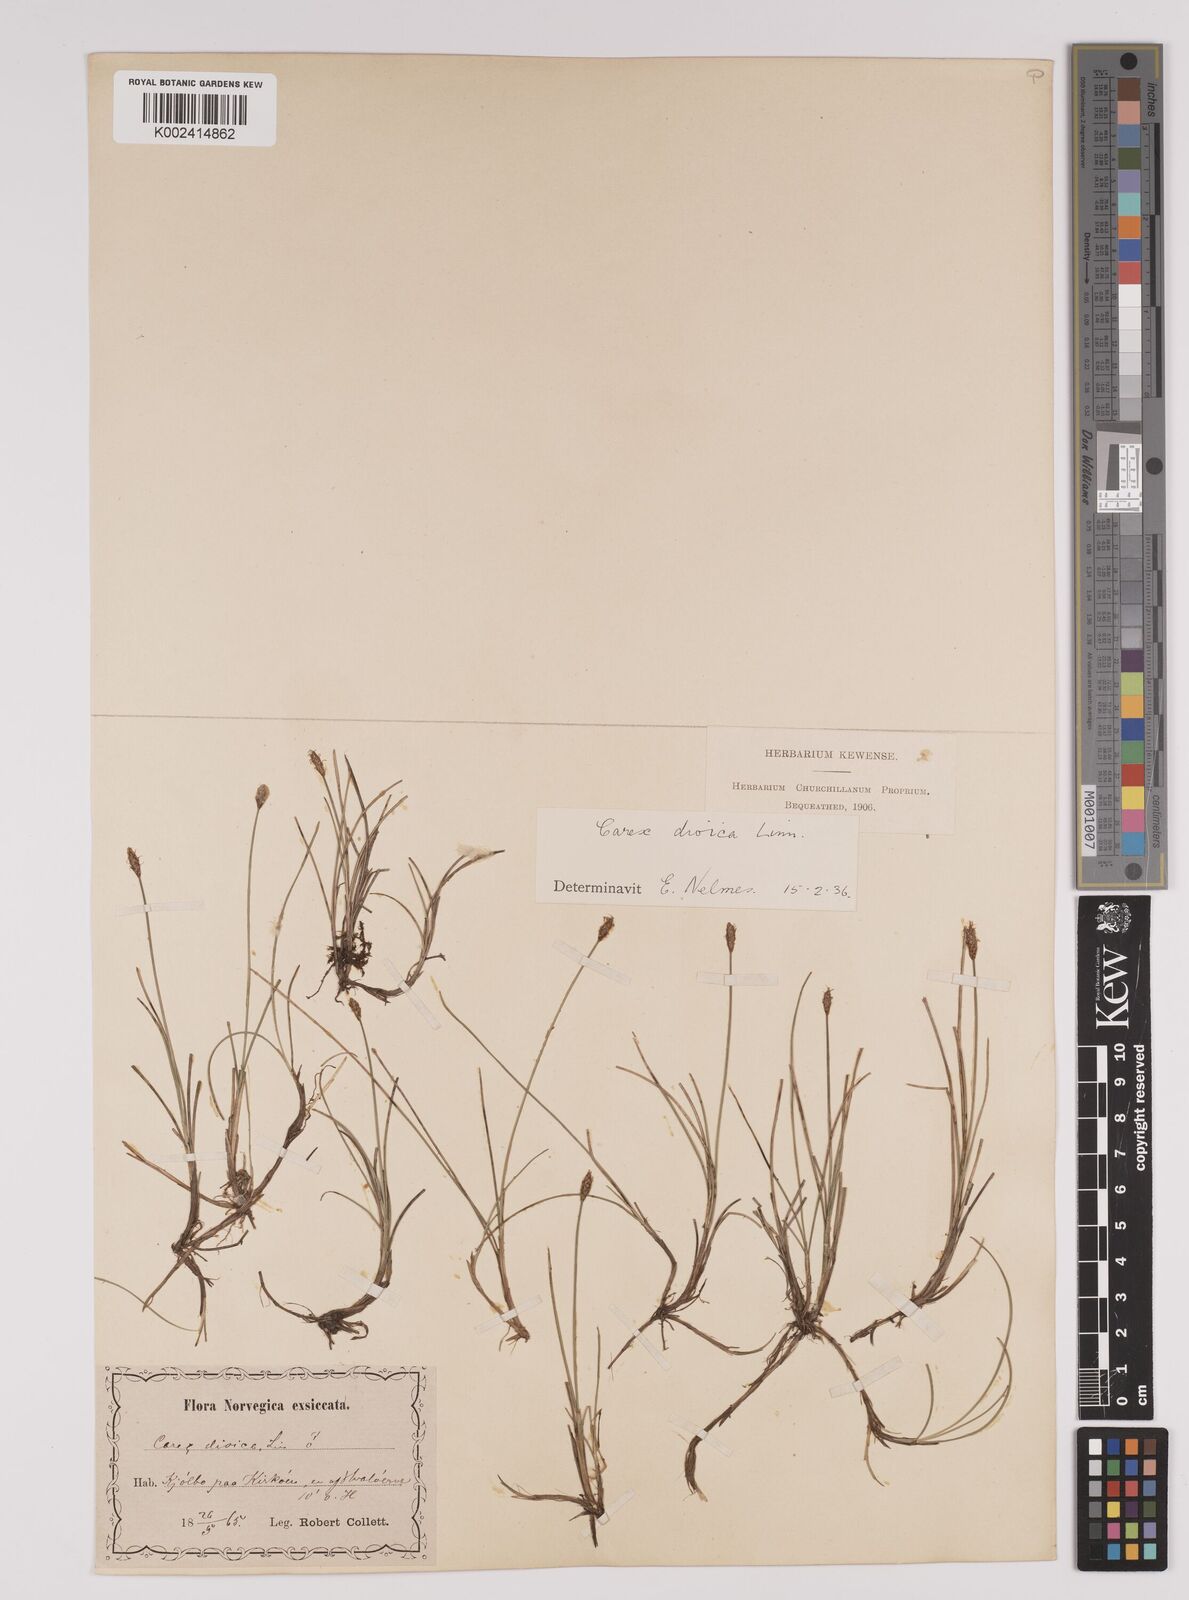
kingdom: Plantae
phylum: Tracheophyta
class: Liliopsida
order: Poales
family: Cyperaceae
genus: Carex
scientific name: Carex dioica
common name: Dioecious sedge
